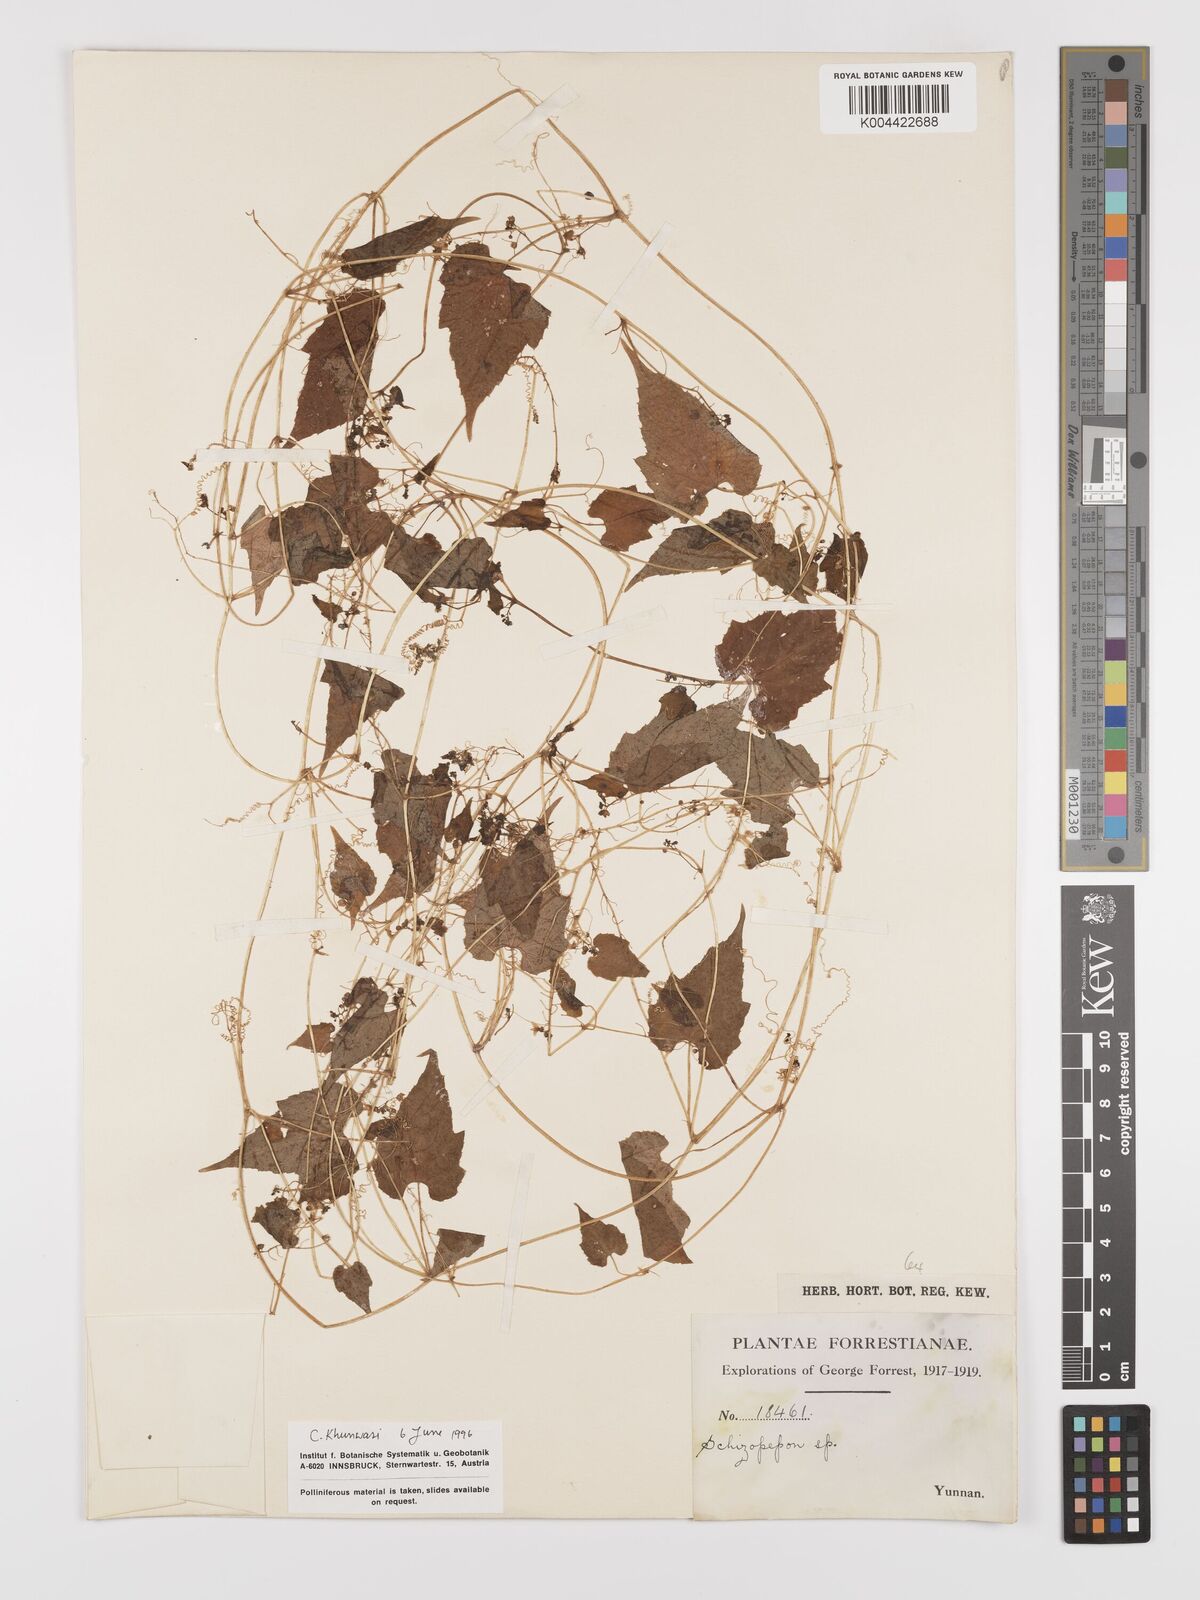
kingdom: Plantae
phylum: Tracheophyta
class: Magnoliopsida
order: Cucurbitales
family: Cucurbitaceae
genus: Schizopepon
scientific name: Schizopepon longipes
